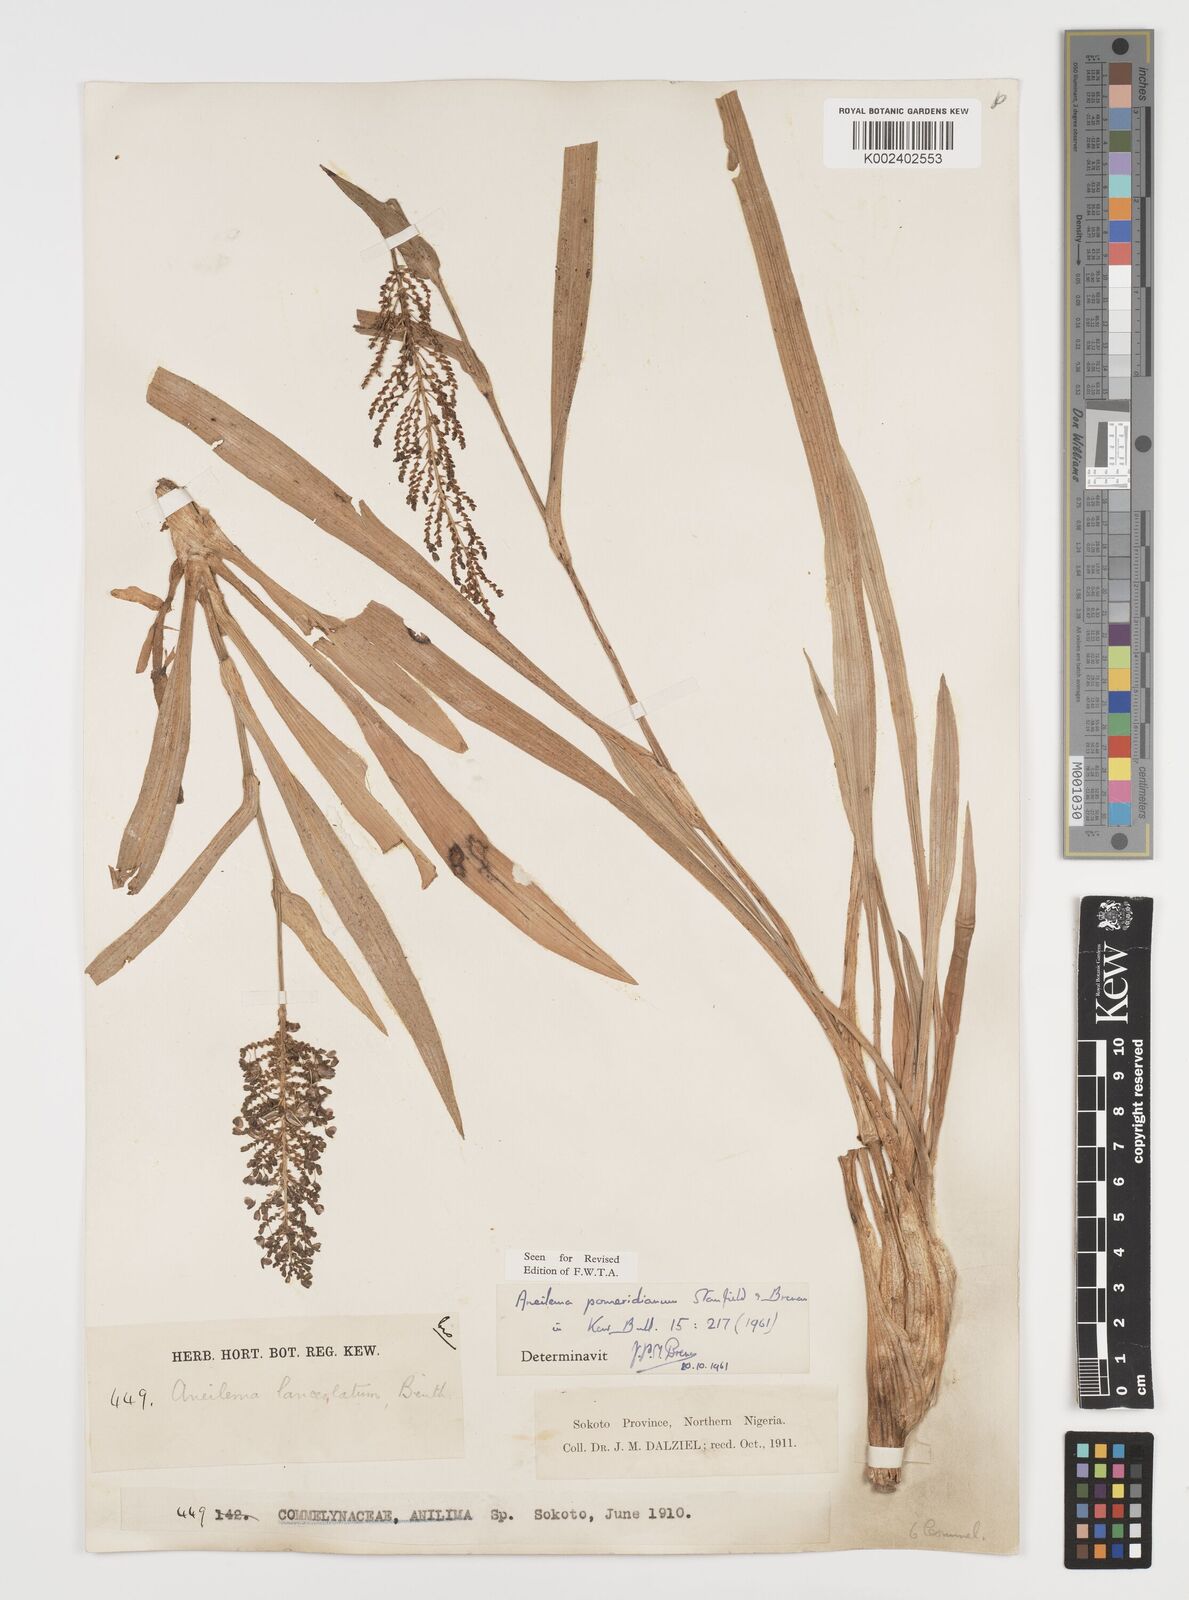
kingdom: Plantae
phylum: Tracheophyta
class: Liliopsida
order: Commelinales
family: Commelinaceae
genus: Aneilema
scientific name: Aneilema pomeridianum
